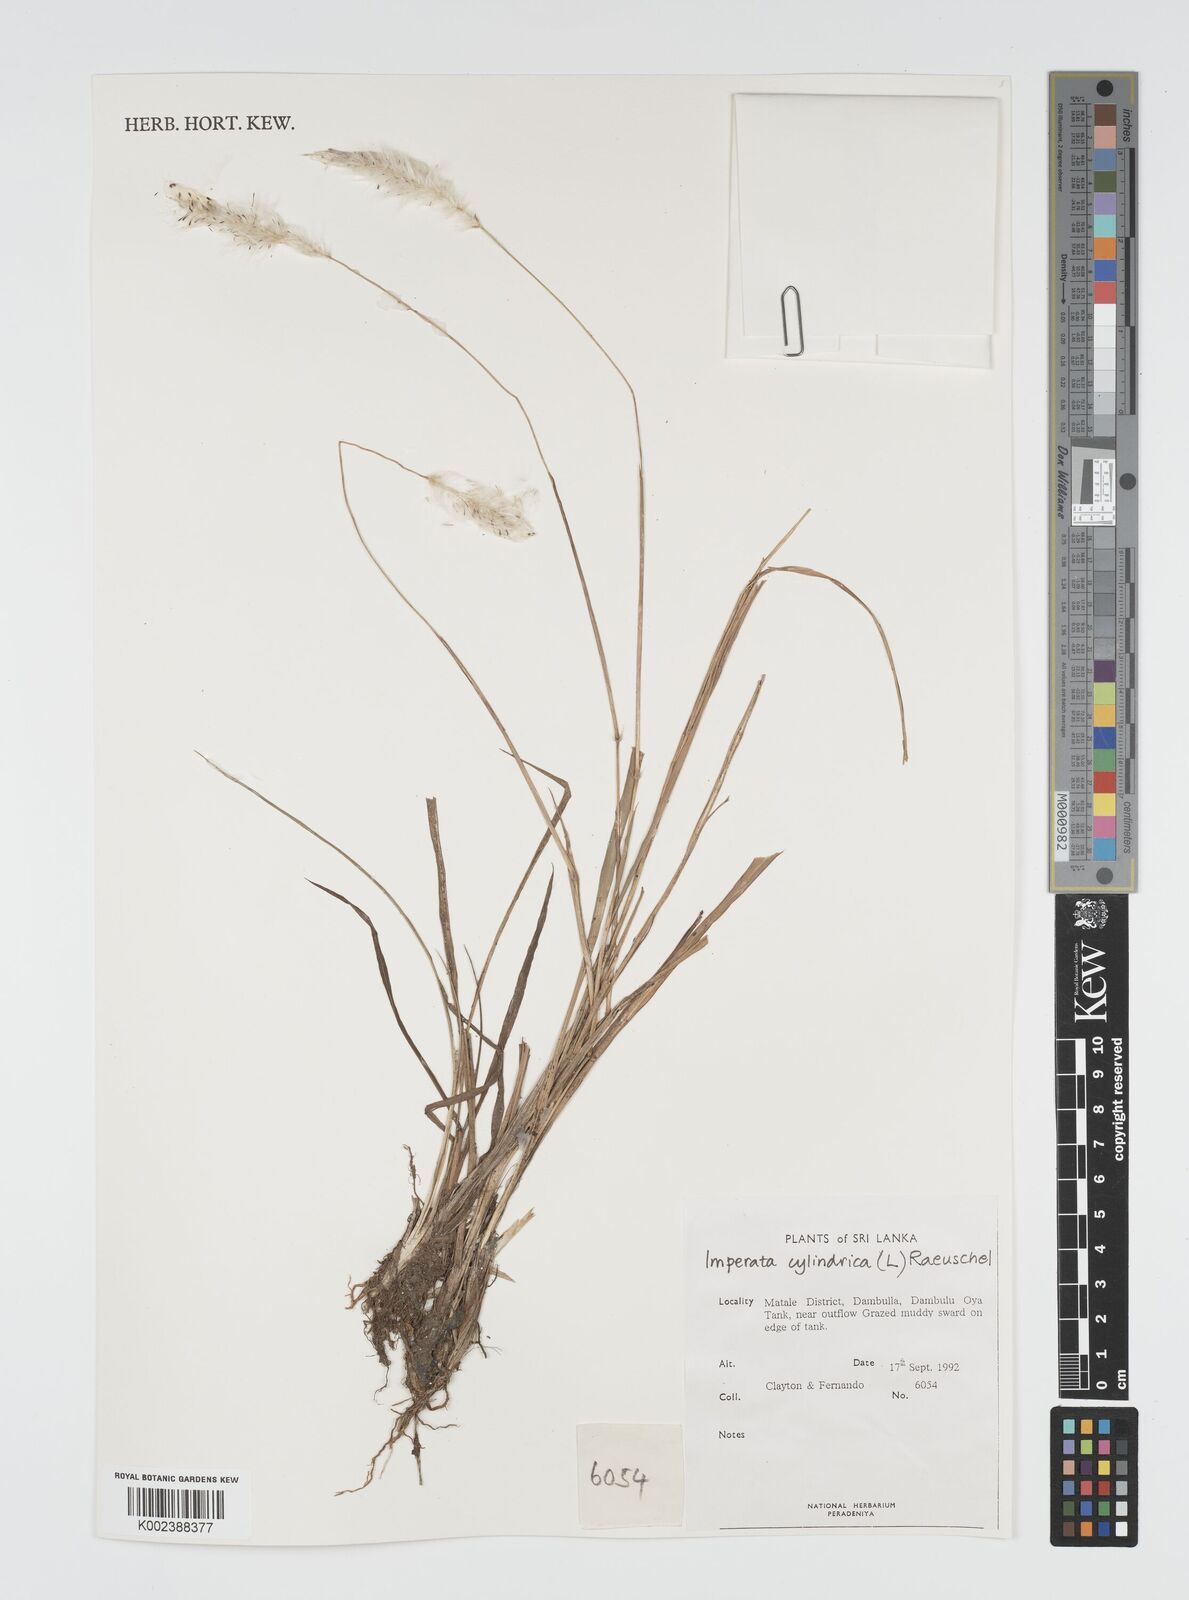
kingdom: Plantae
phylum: Tracheophyta
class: Liliopsida
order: Poales
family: Poaceae
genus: Imperata
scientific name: Imperata cylindrica
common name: Cogongrass
